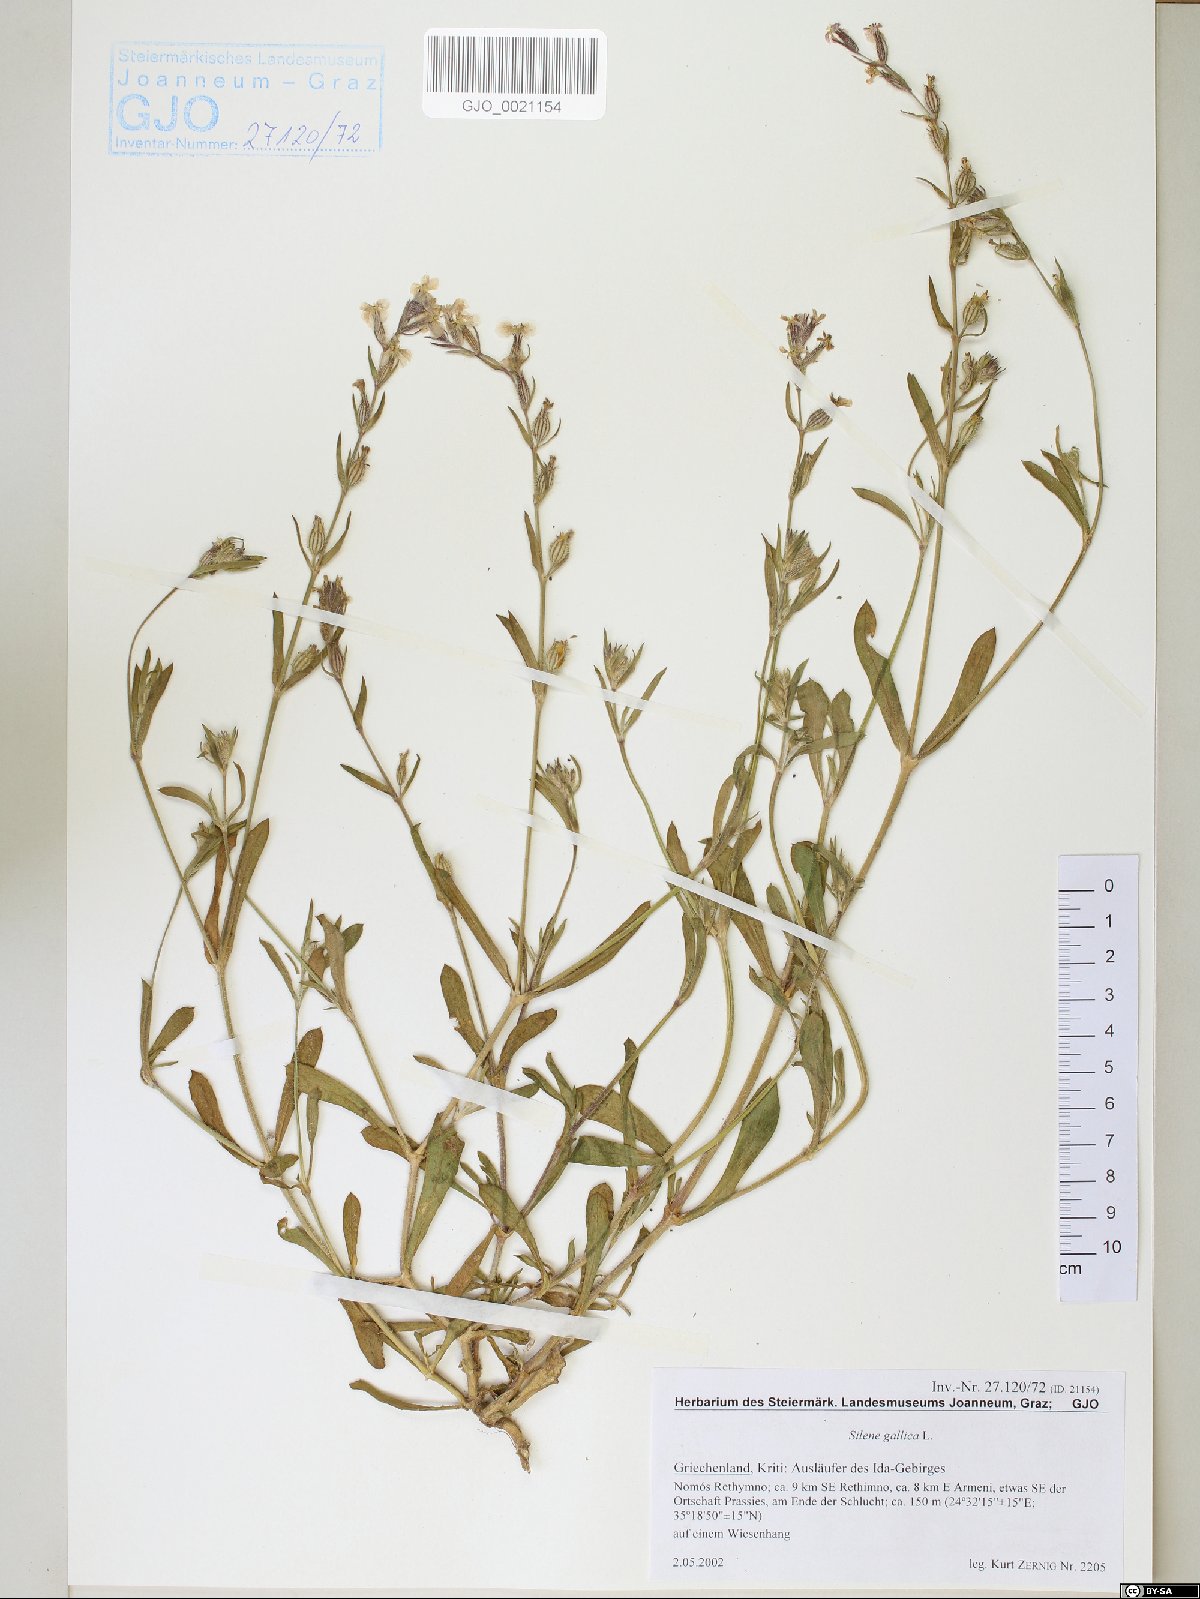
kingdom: Plantae
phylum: Tracheophyta
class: Magnoliopsida
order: Caryophyllales
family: Caryophyllaceae
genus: Silene
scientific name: Silene gallica
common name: Small-flowered catchfly
